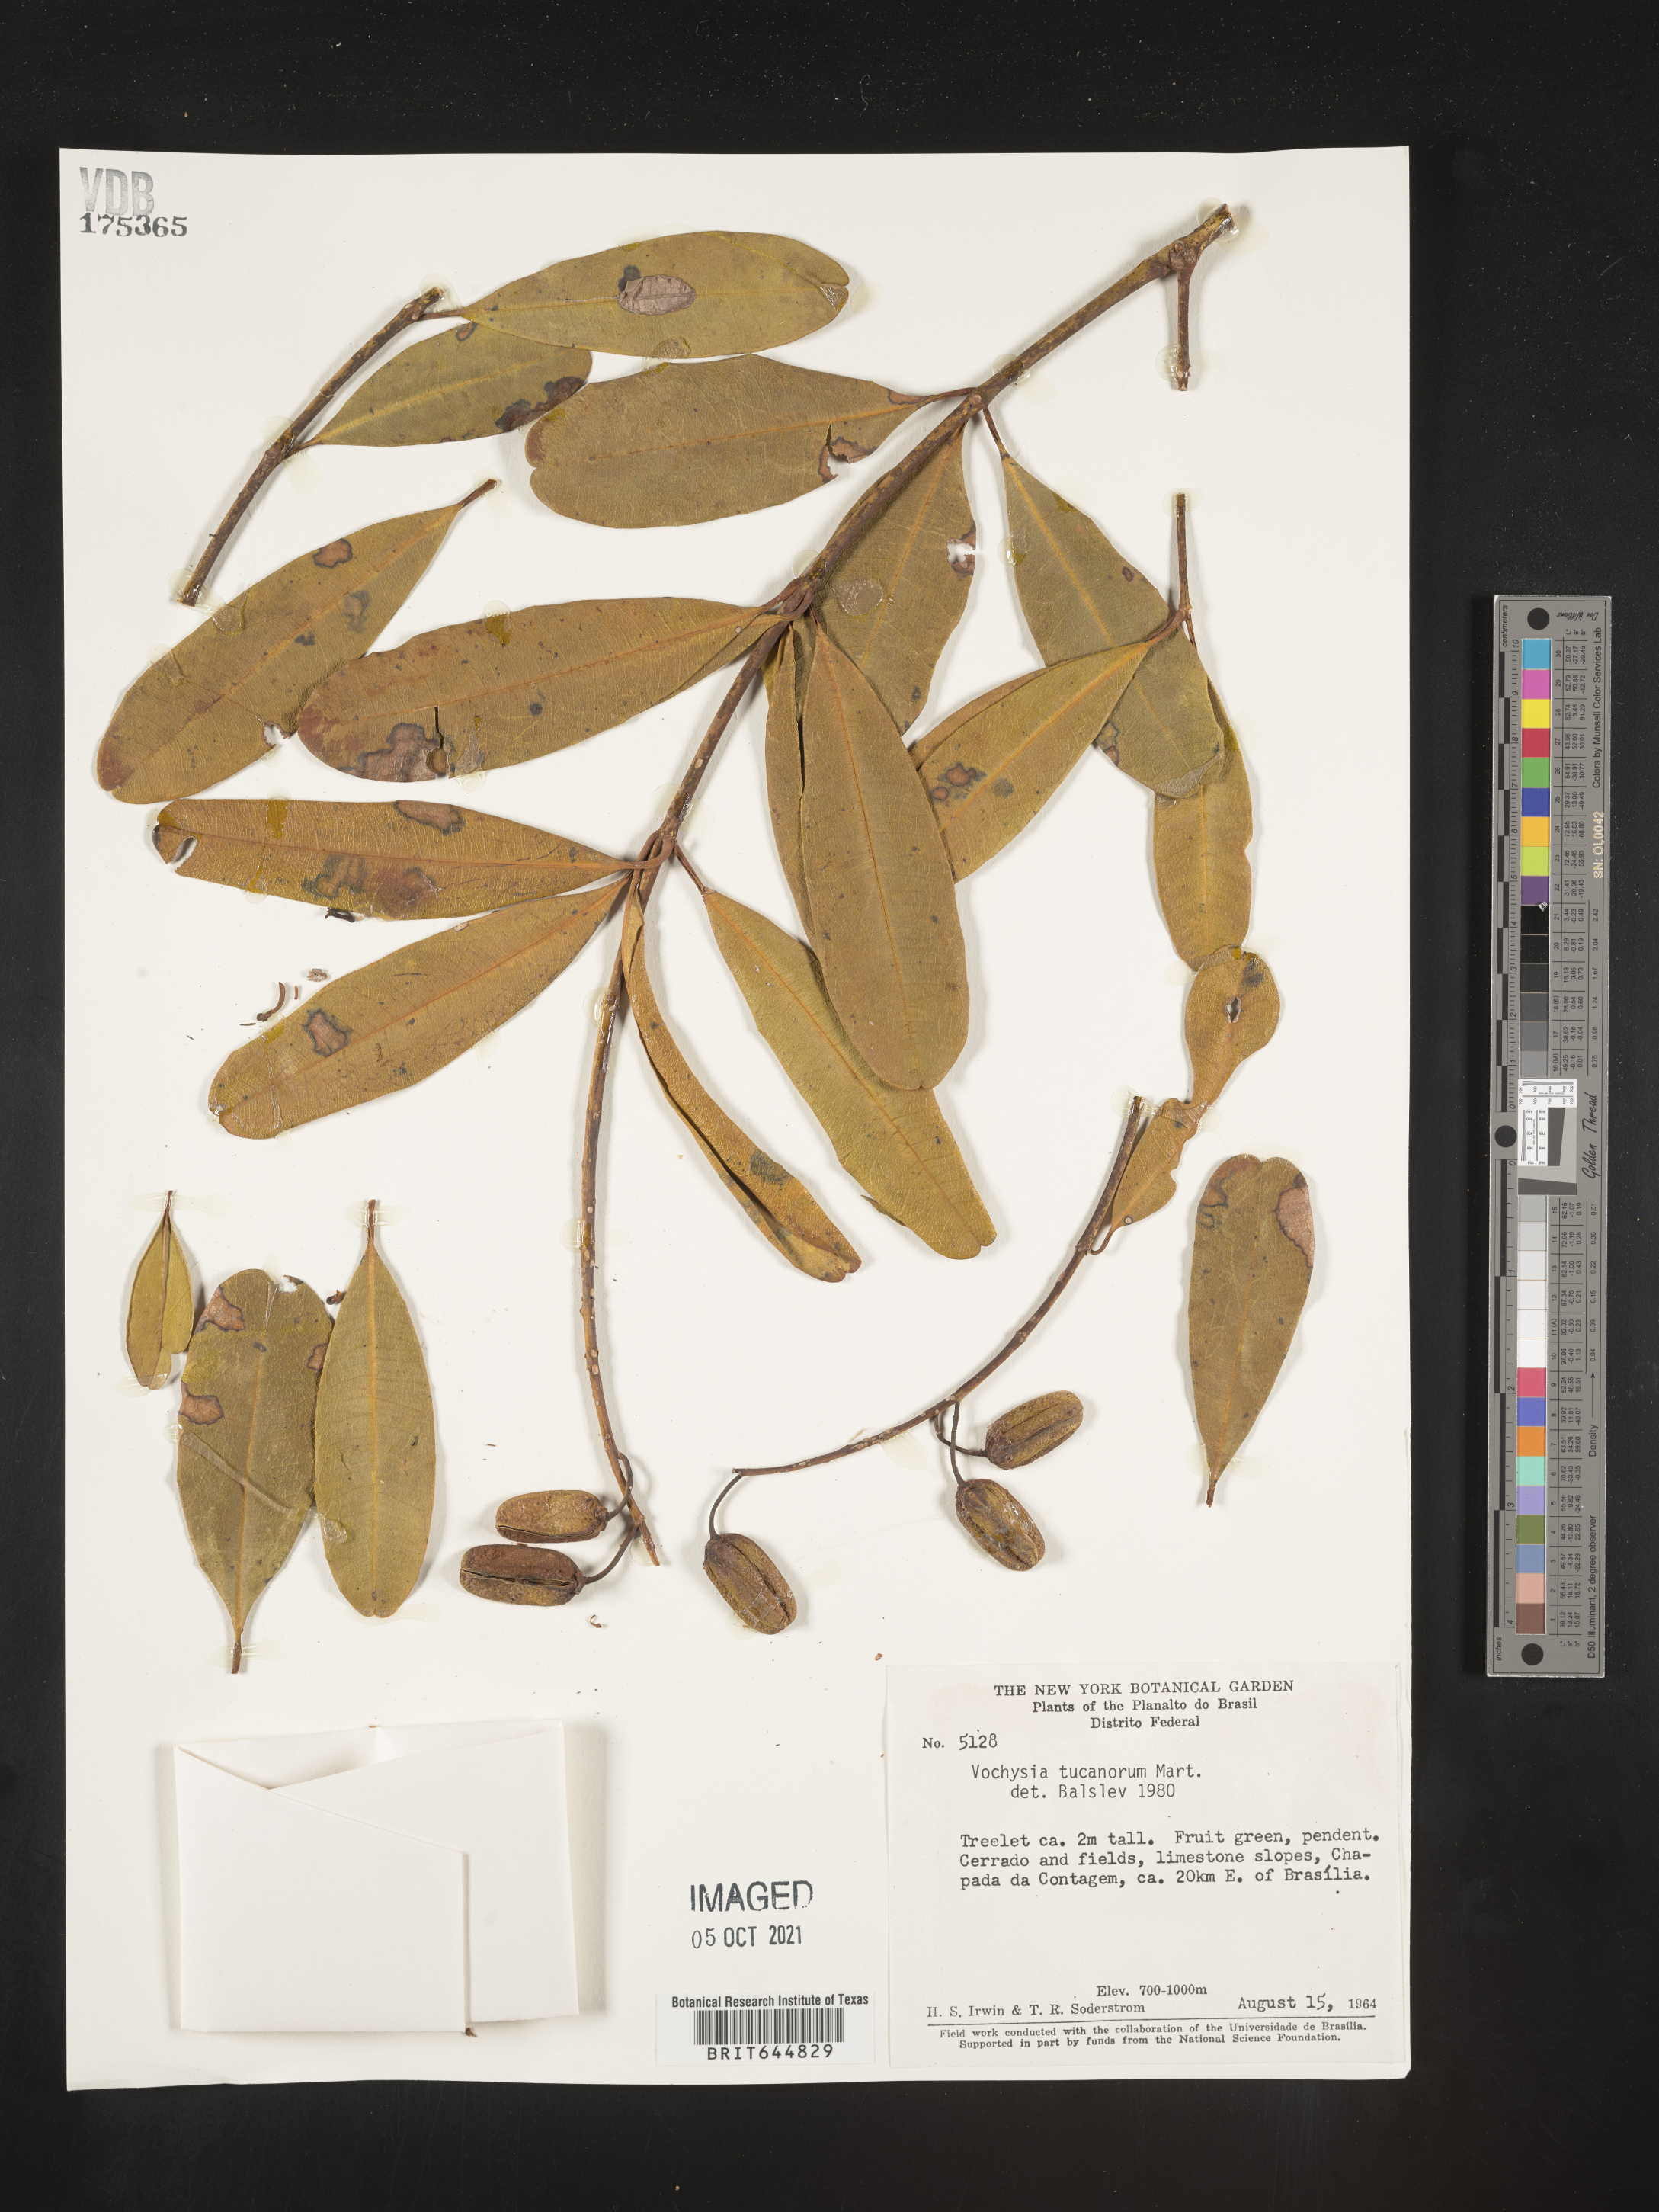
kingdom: Plantae
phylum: Tracheophyta
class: Magnoliopsida
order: Myrtales
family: Vochysiaceae
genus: Vochysia
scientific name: Vochysia
